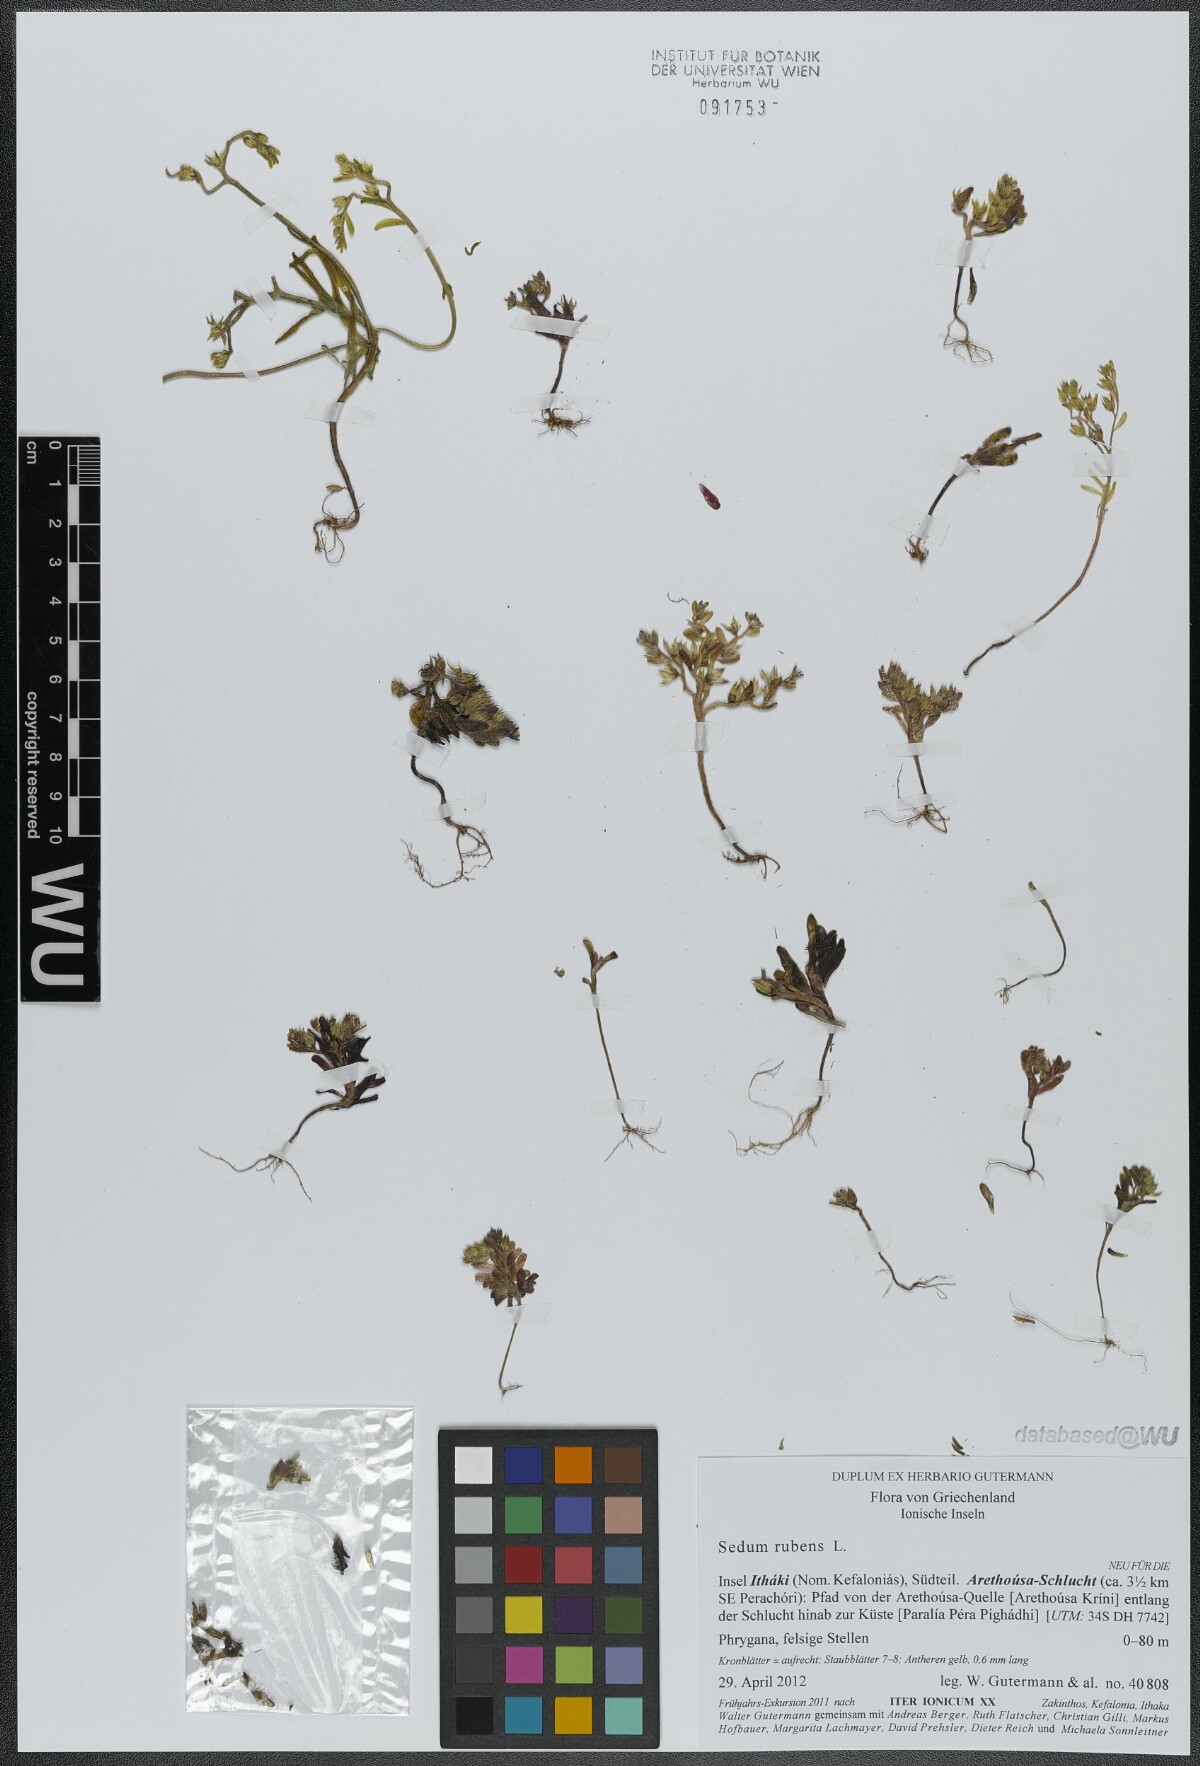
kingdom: Plantae
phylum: Tracheophyta
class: Magnoliopsida
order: Saxifragales
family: Crassulaceae
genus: Sedum
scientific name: Sedum rubens
